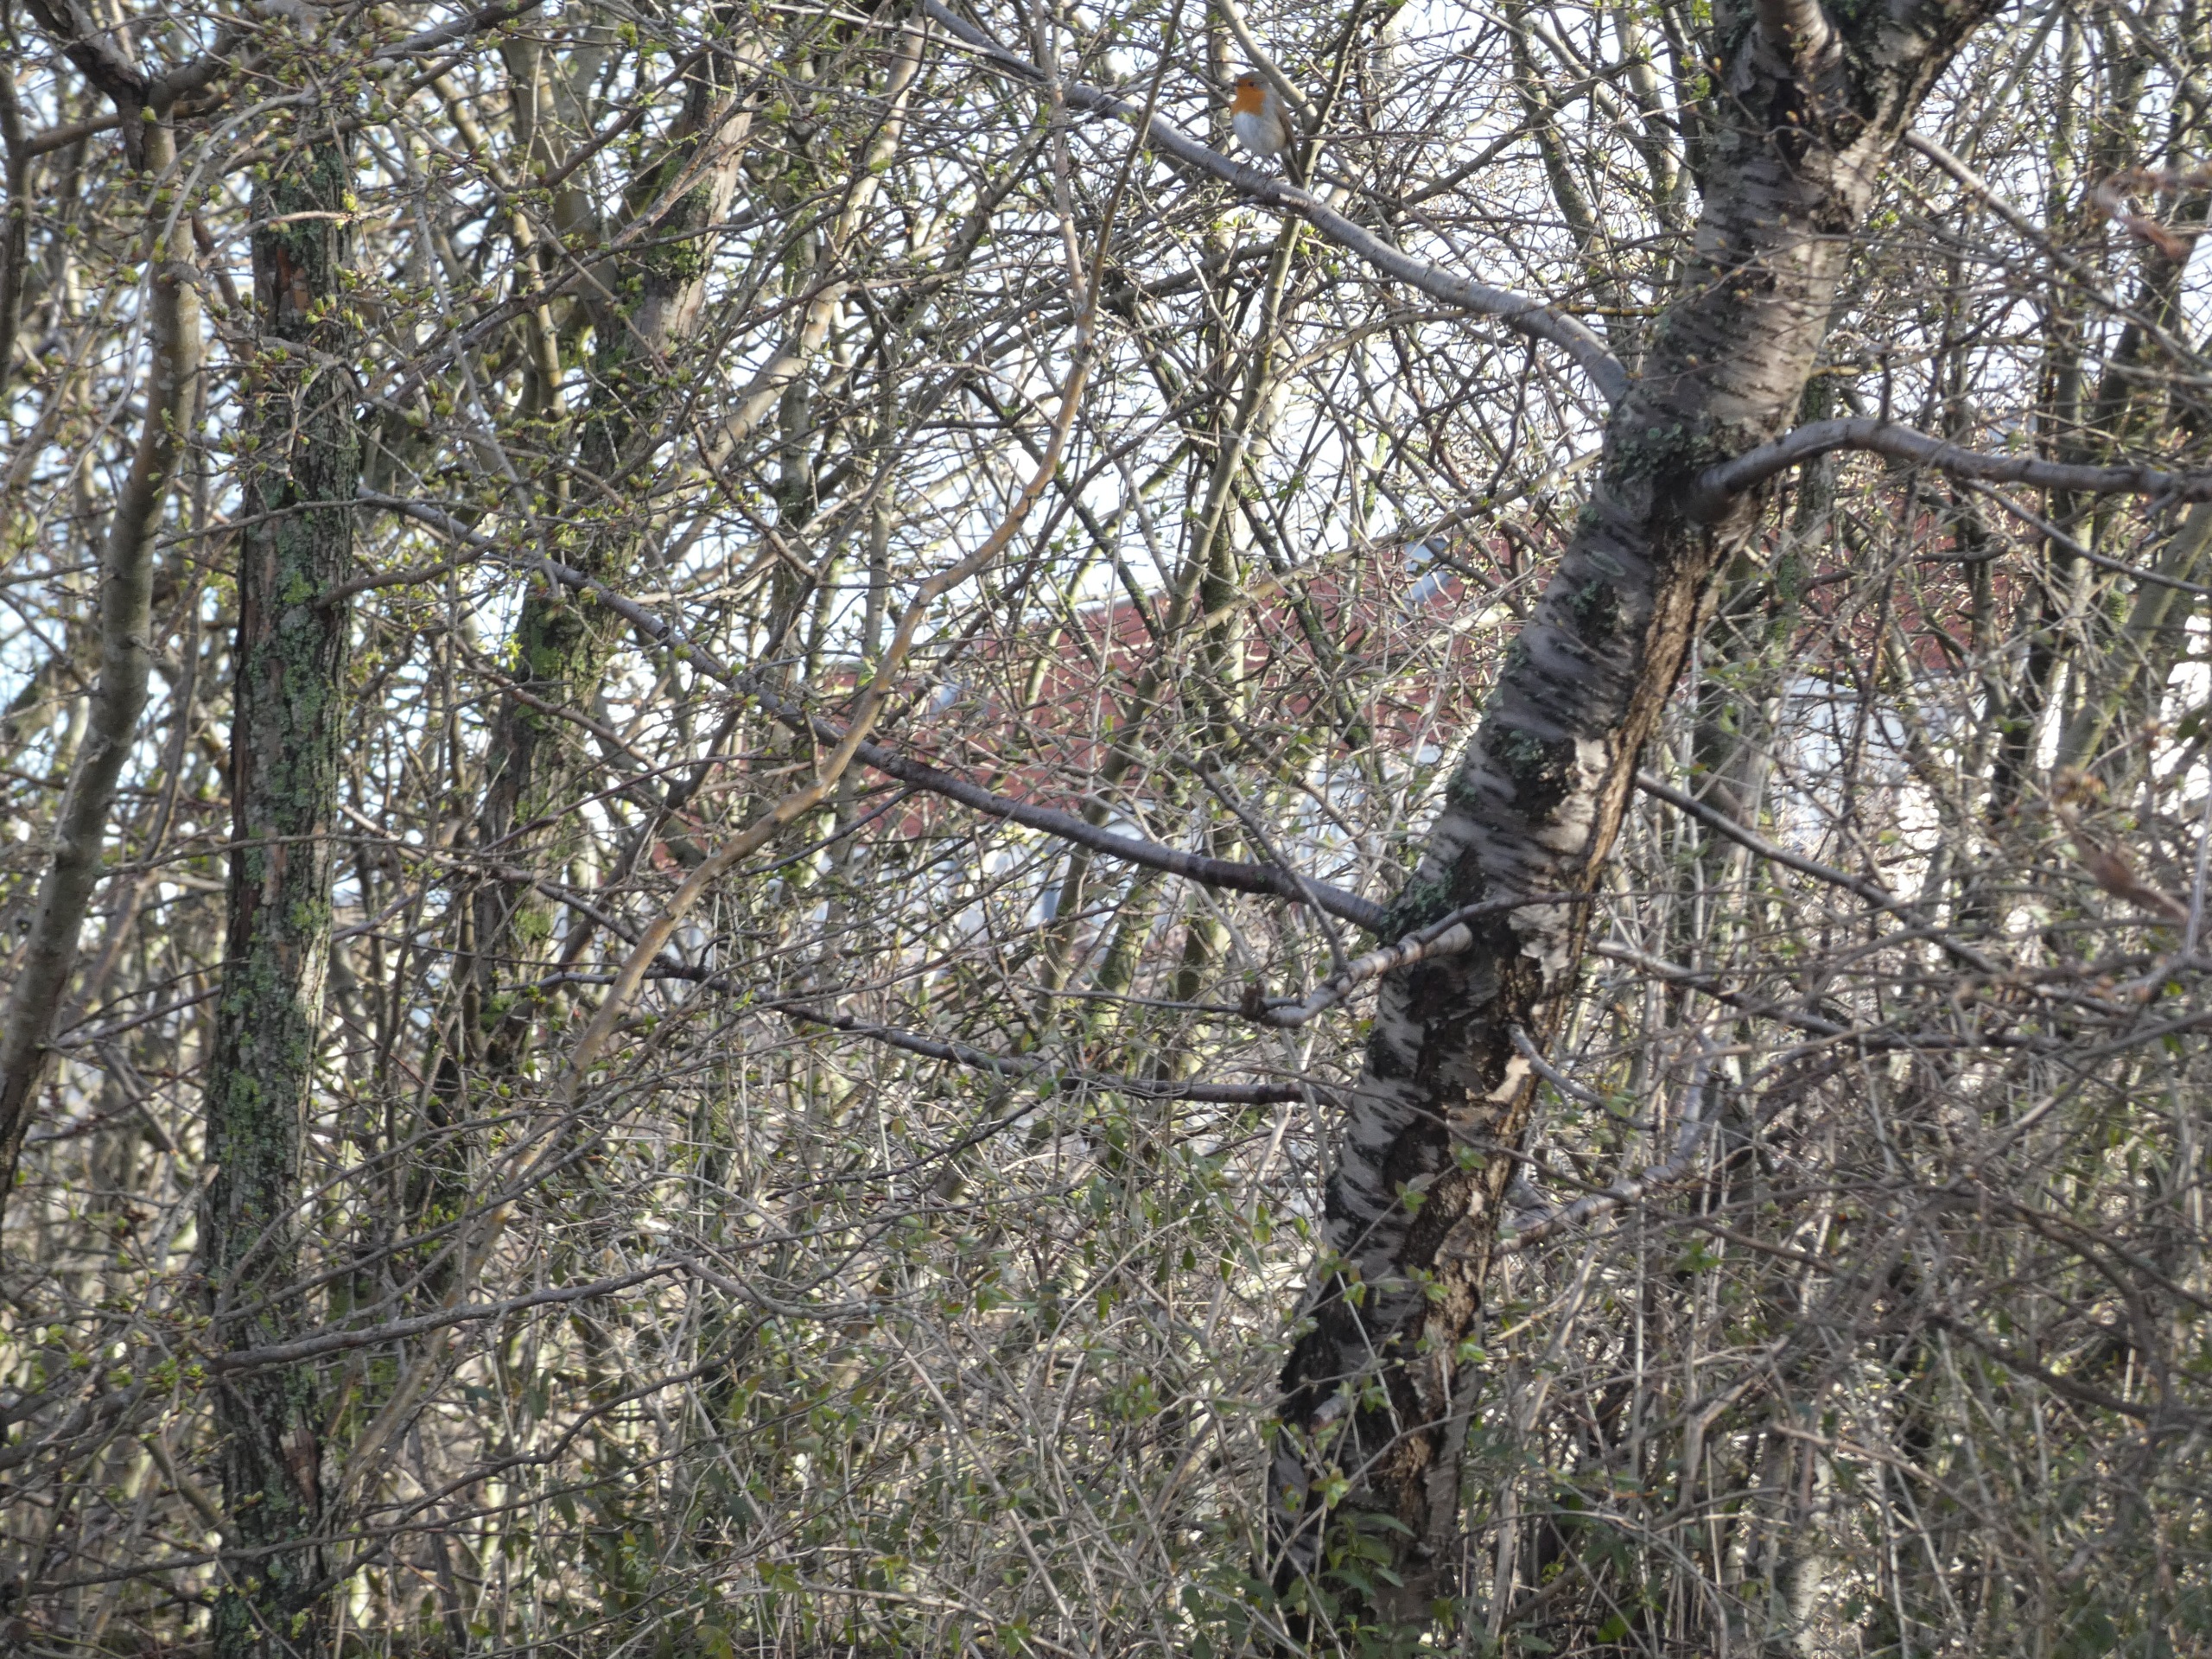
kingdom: Animalia
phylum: Chordata
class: Aves
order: Passeriformes
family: Muscicapidae
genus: Erithacus
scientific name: Erithacus rubecula
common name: Rødhals/rødkælk
